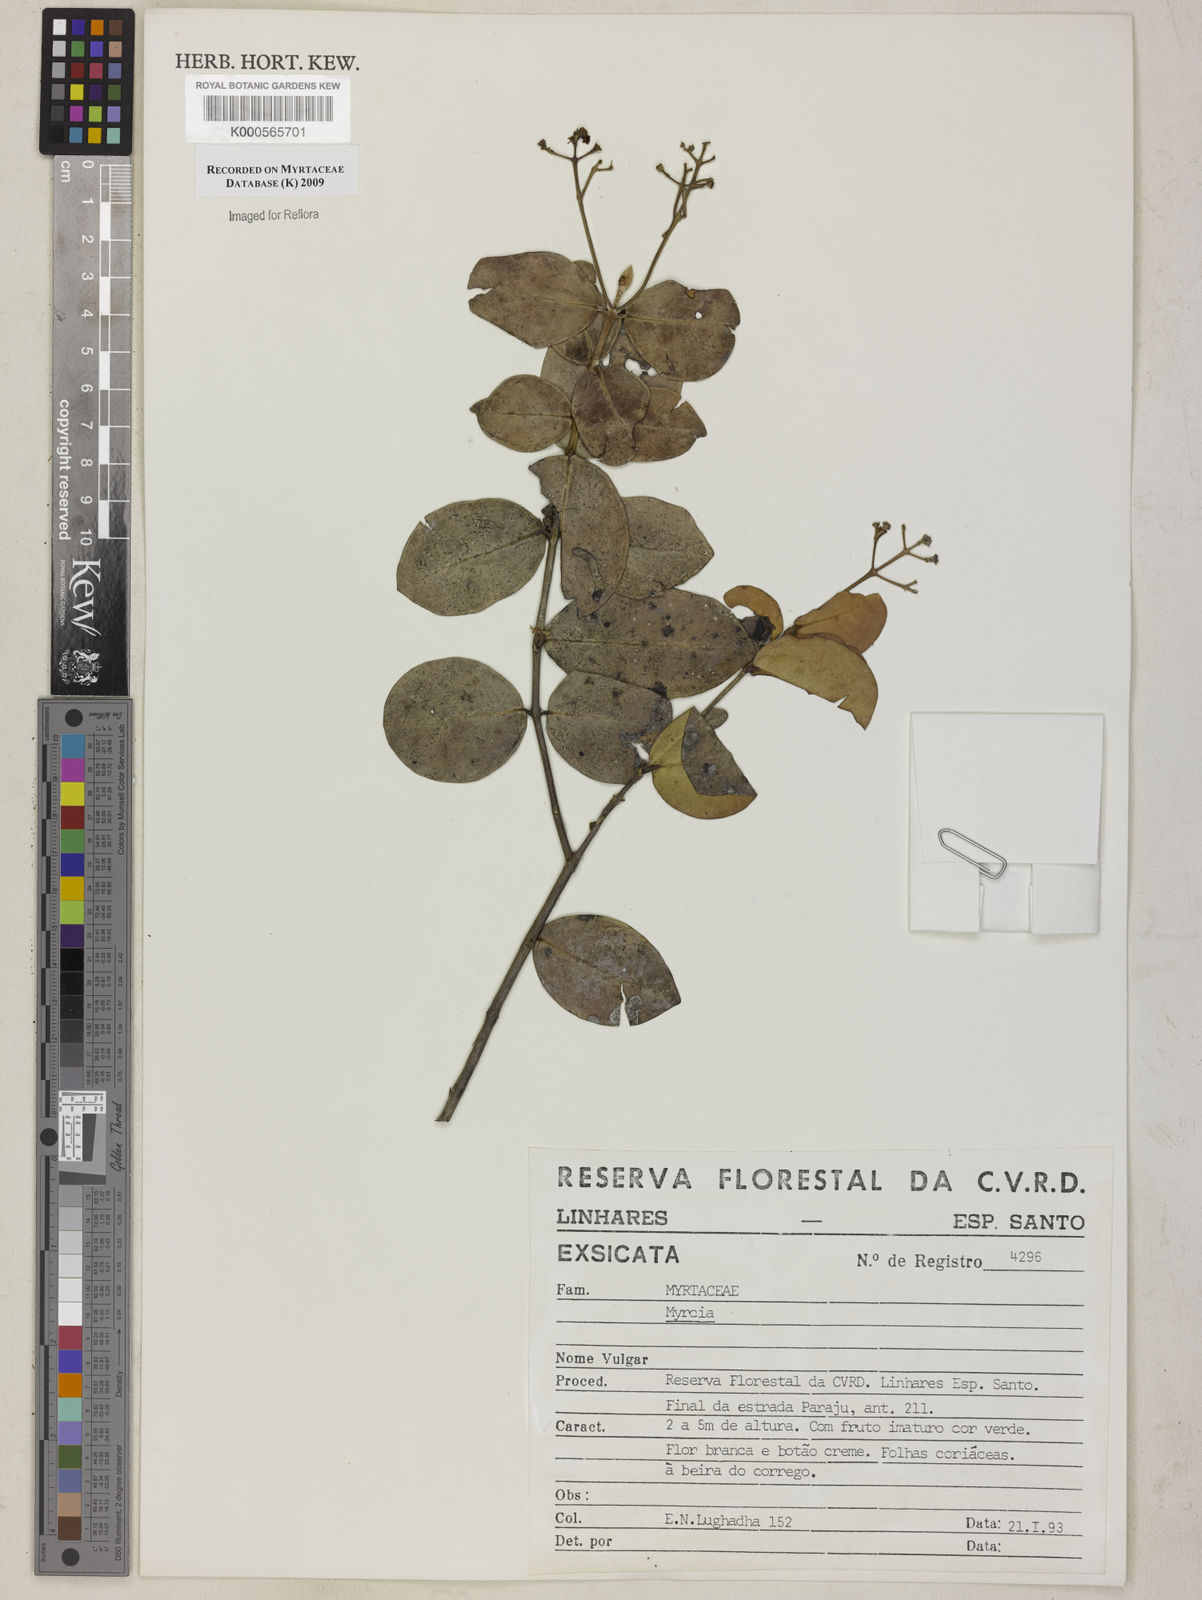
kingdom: Plantae
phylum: Tracheophyta
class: Magnoliopsida
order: Myrtales
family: Myrtaceae
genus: Myrcia
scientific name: Myrcia
